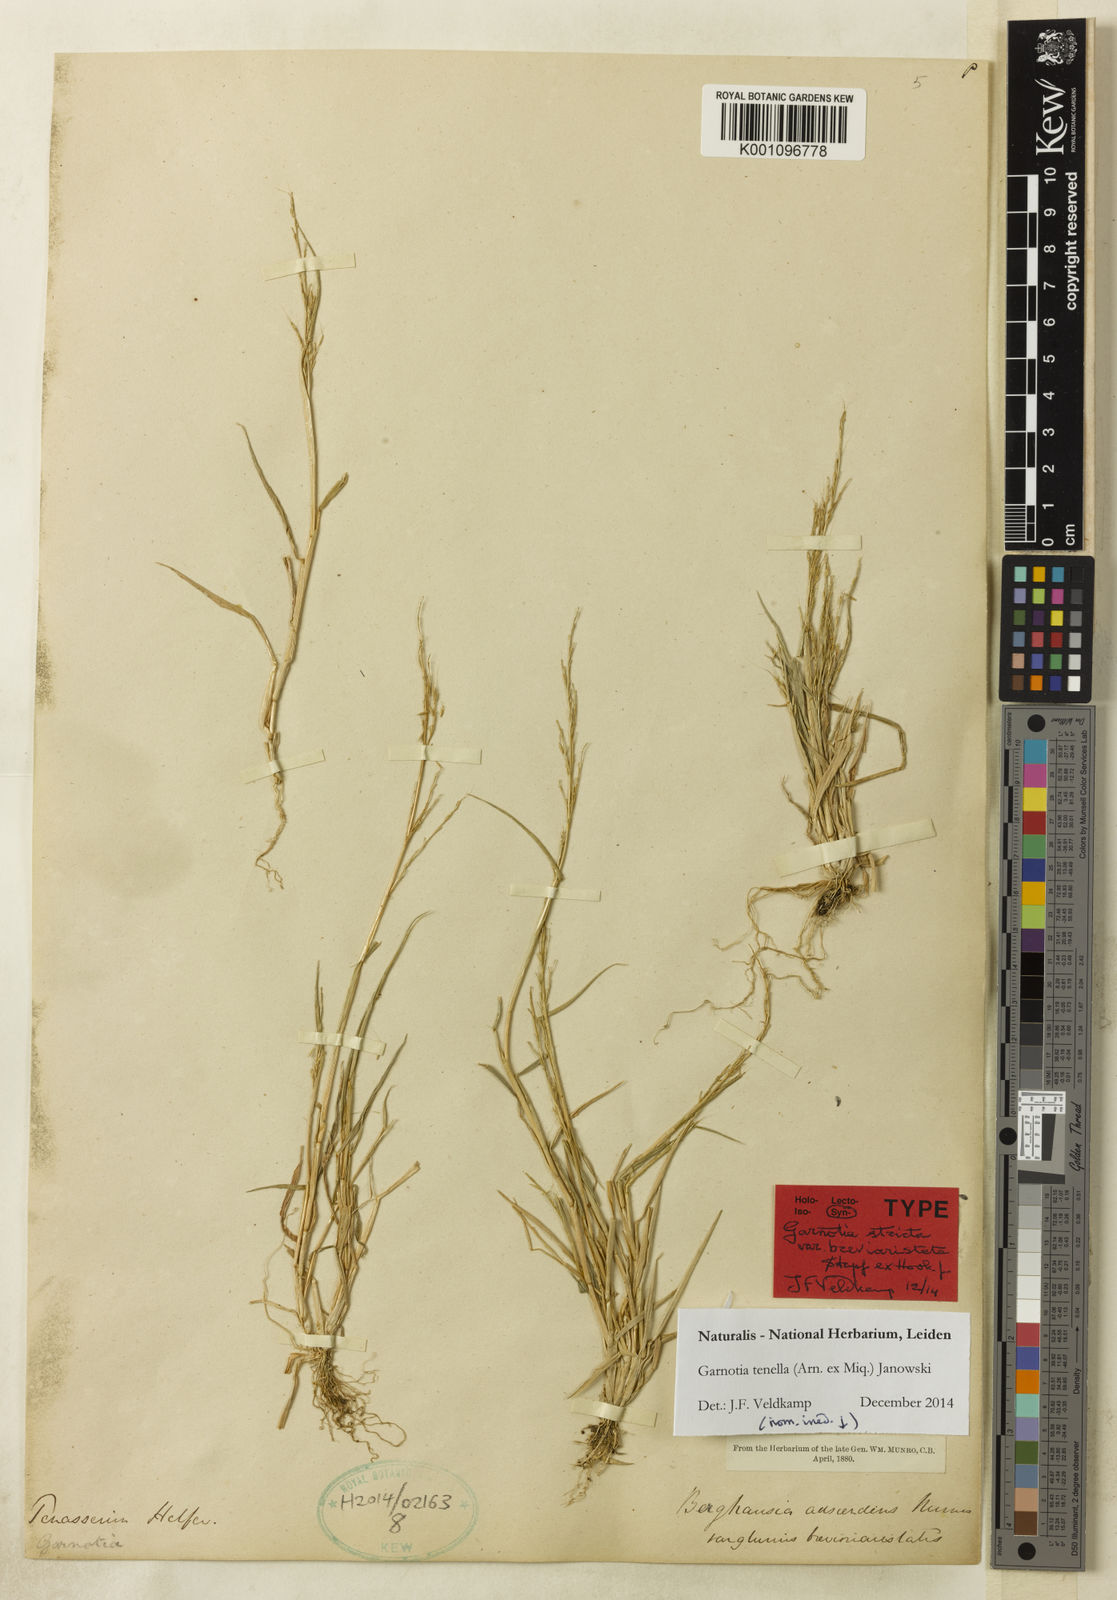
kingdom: Plantae
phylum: Tracheophyta
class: Liliopsida
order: Poales
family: Poaceae
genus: Garnotia
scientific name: Garnotia stricta
